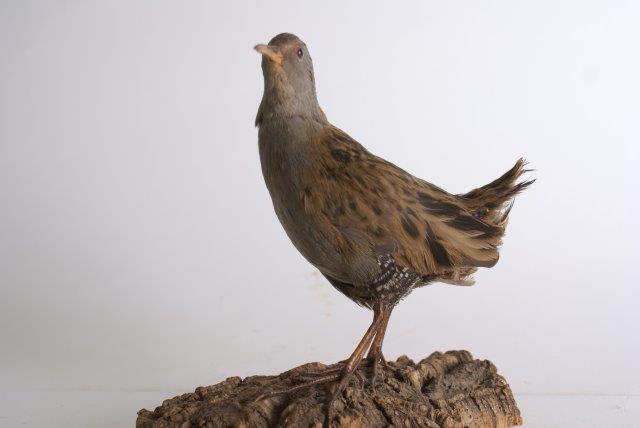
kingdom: Animalia
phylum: Chordata
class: Aves
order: Gruiformes
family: Rallidae
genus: Rallus
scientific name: Rallus aquaticus
